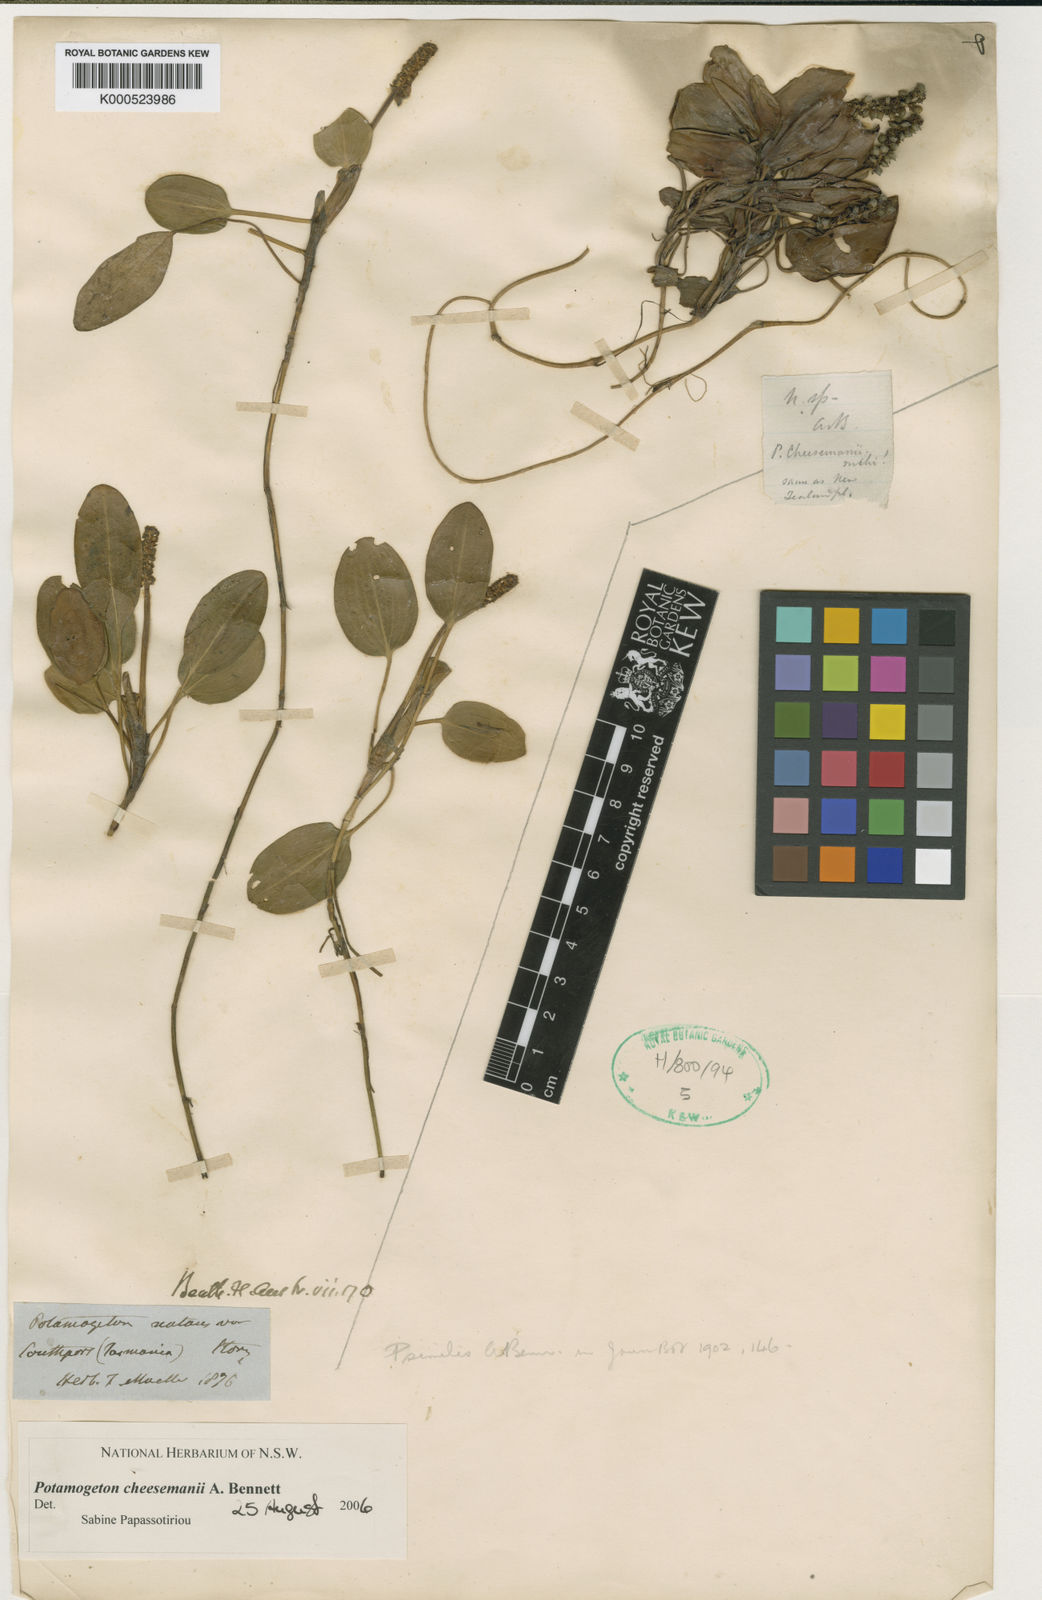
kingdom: Plantae
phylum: Tracheophyta
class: Liliopsida
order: Alismatales
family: Potamogetonaceae
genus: Potamogeton
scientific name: Potamogeton cheesemanii
